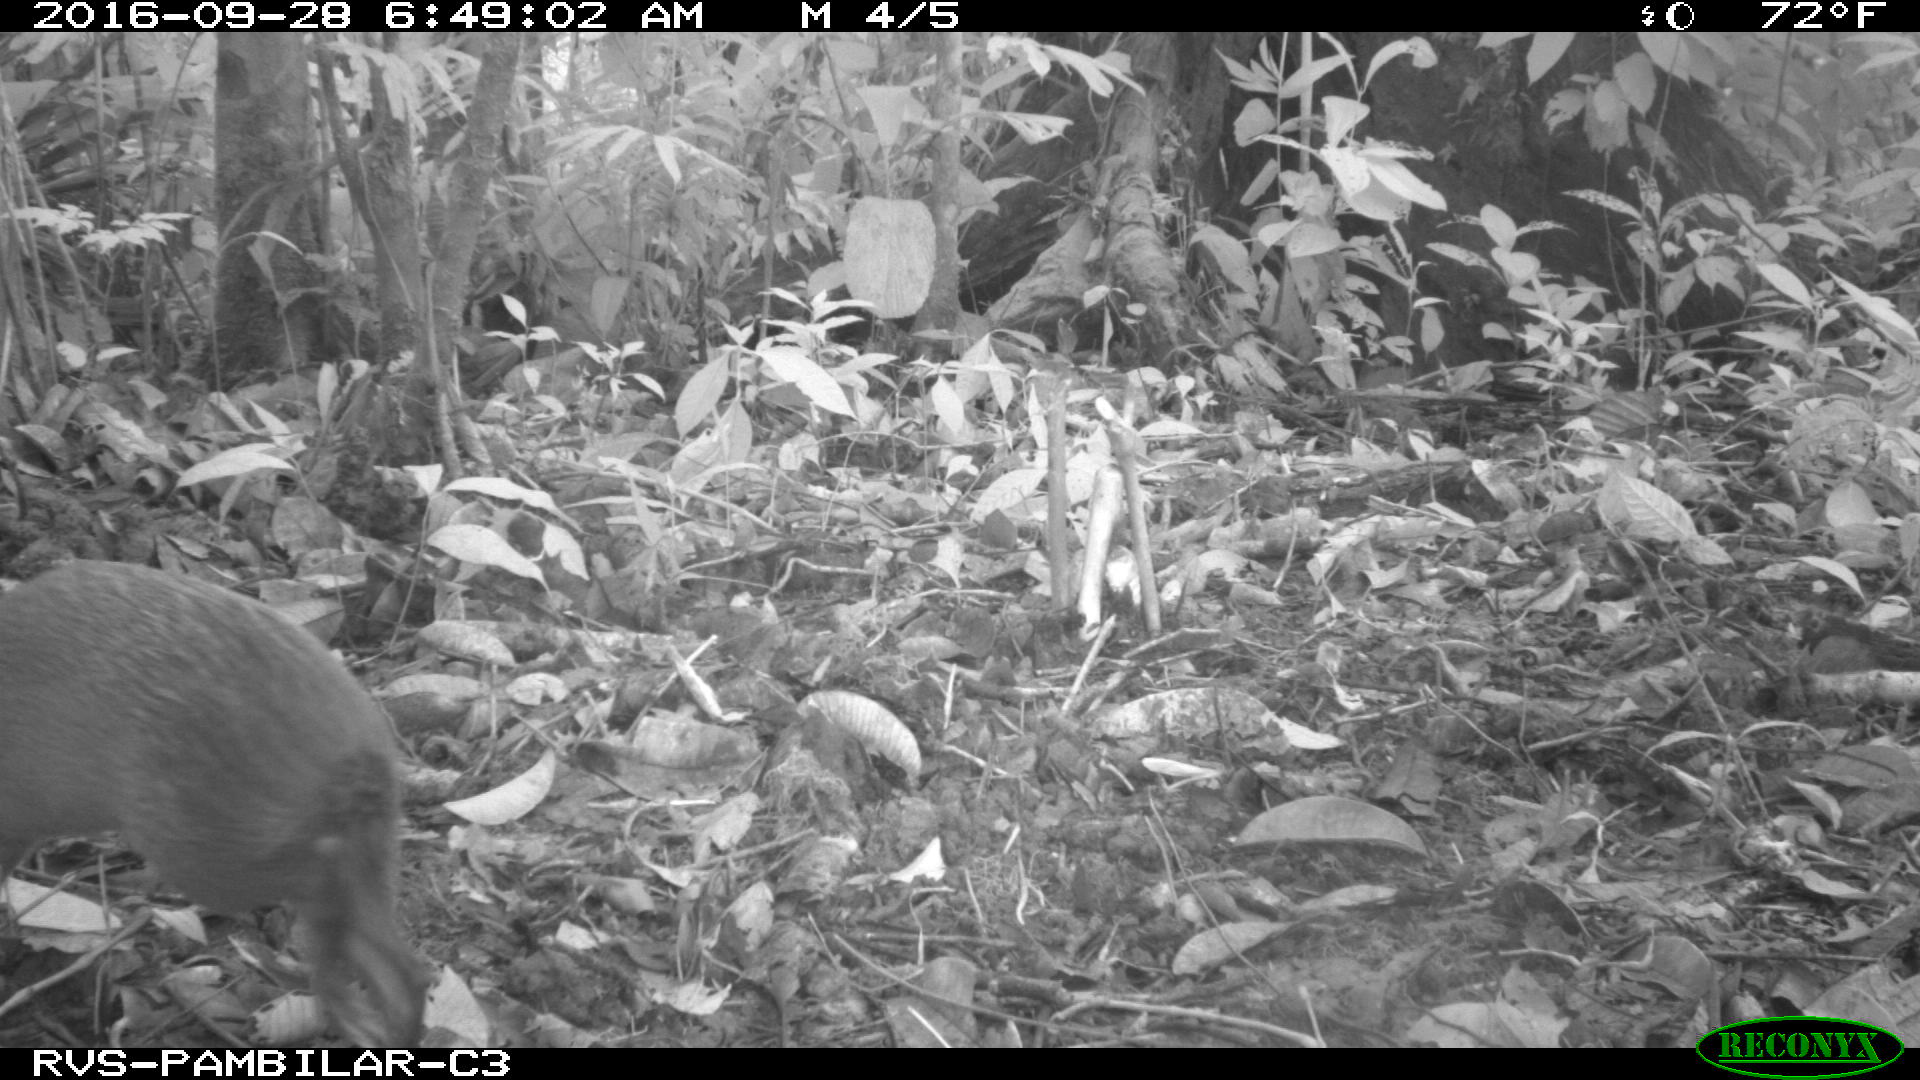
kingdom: Animalia
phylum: Chordata
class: Mammalia
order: Rodentia
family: Dasyproctidae
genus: Dasyprocta
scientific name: Dasyprocta punctata
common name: Central american agouti
